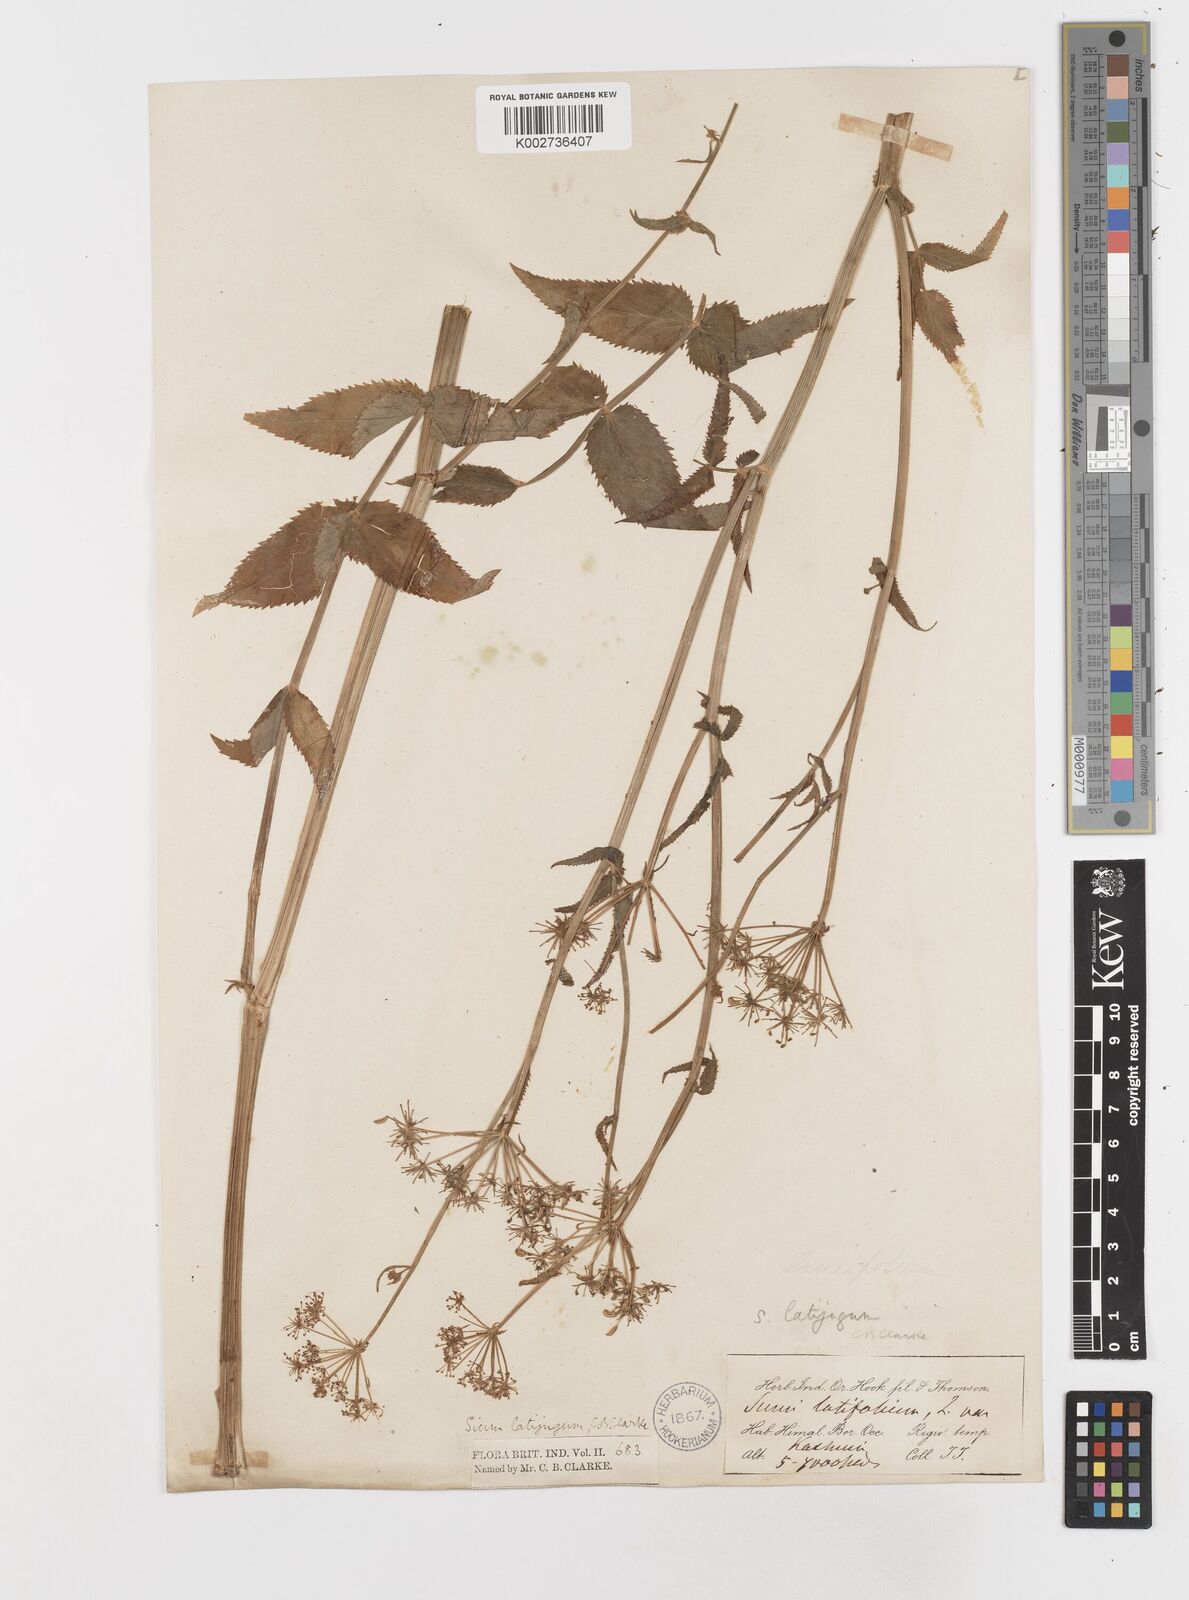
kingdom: Plantae
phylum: Tracheophyta
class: Magnoliopsida
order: Apiales
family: Apiaceae
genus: Sium
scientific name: Sium sisarum
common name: Skirret
